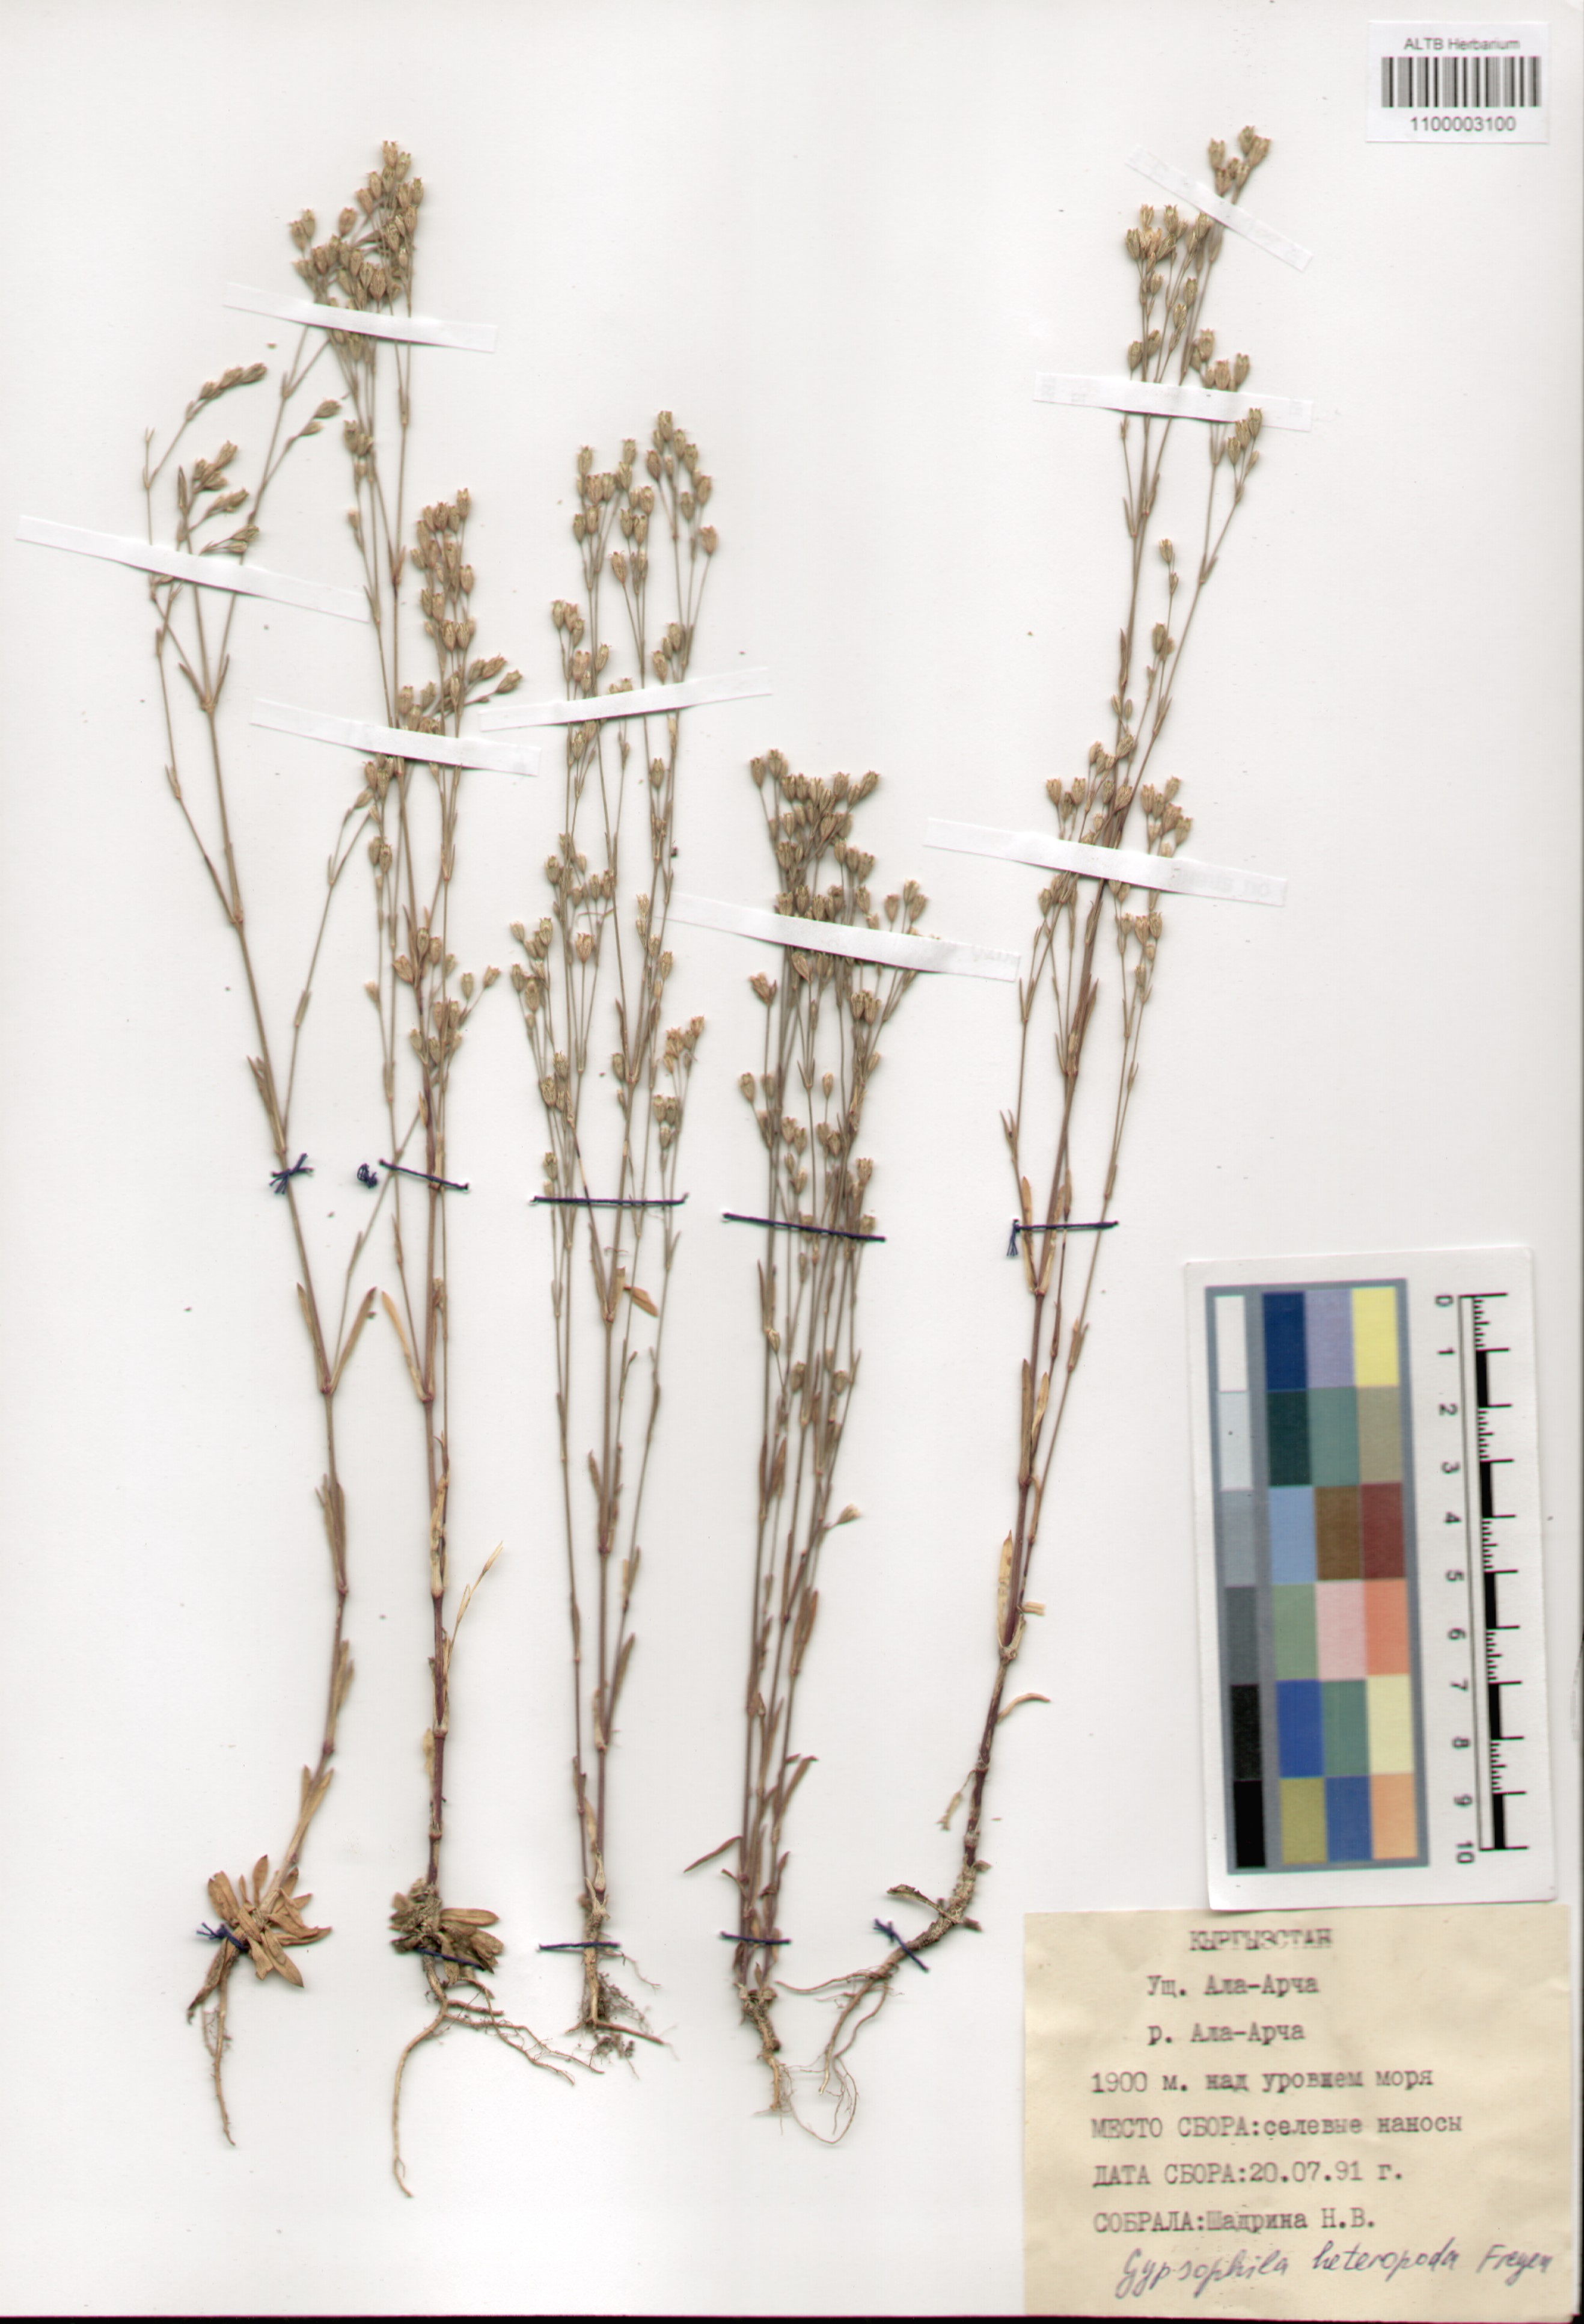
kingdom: Plantae
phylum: Tracheophyta
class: Magnoliopsida
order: Caryophyllales
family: Caryophyllaceae
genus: Gypsophila
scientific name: Gypsophila heteropoda
